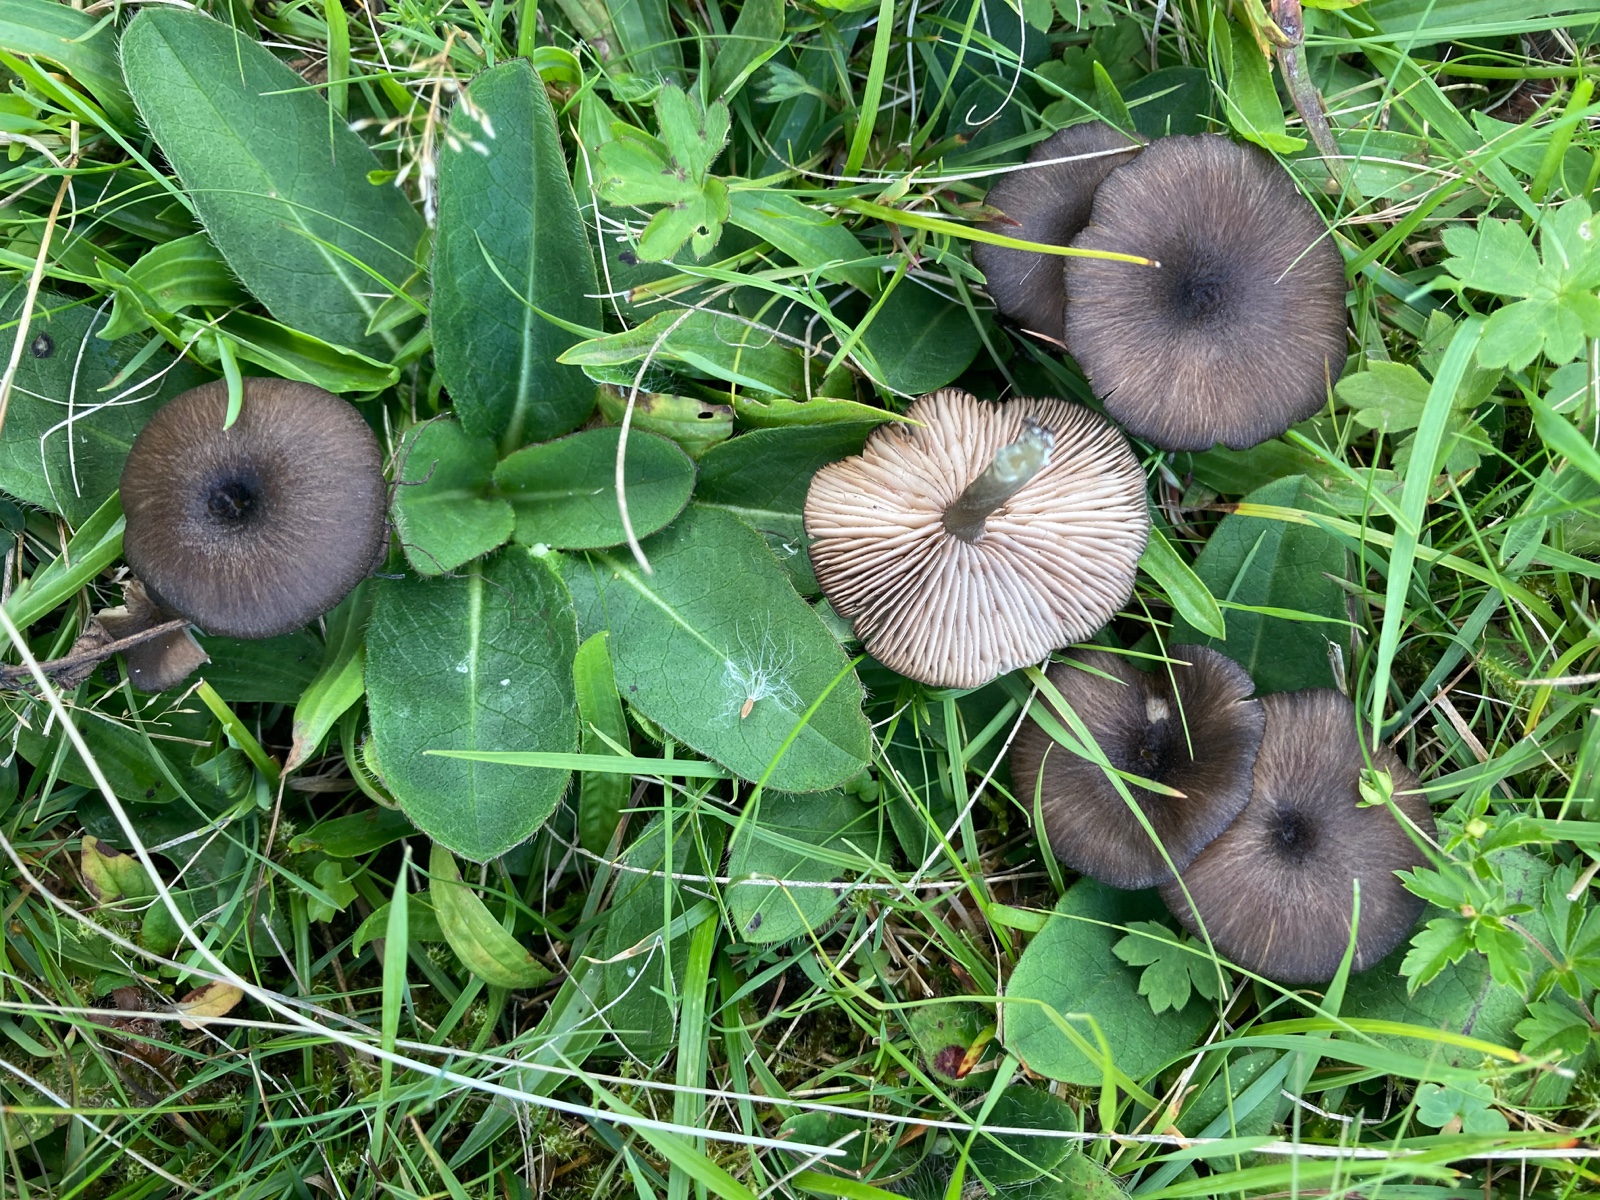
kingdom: Fungi
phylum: Basidiomycota
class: Agaricomycetes
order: Agaricales
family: Entolomataceae
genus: Entoloma
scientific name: Entoloma
